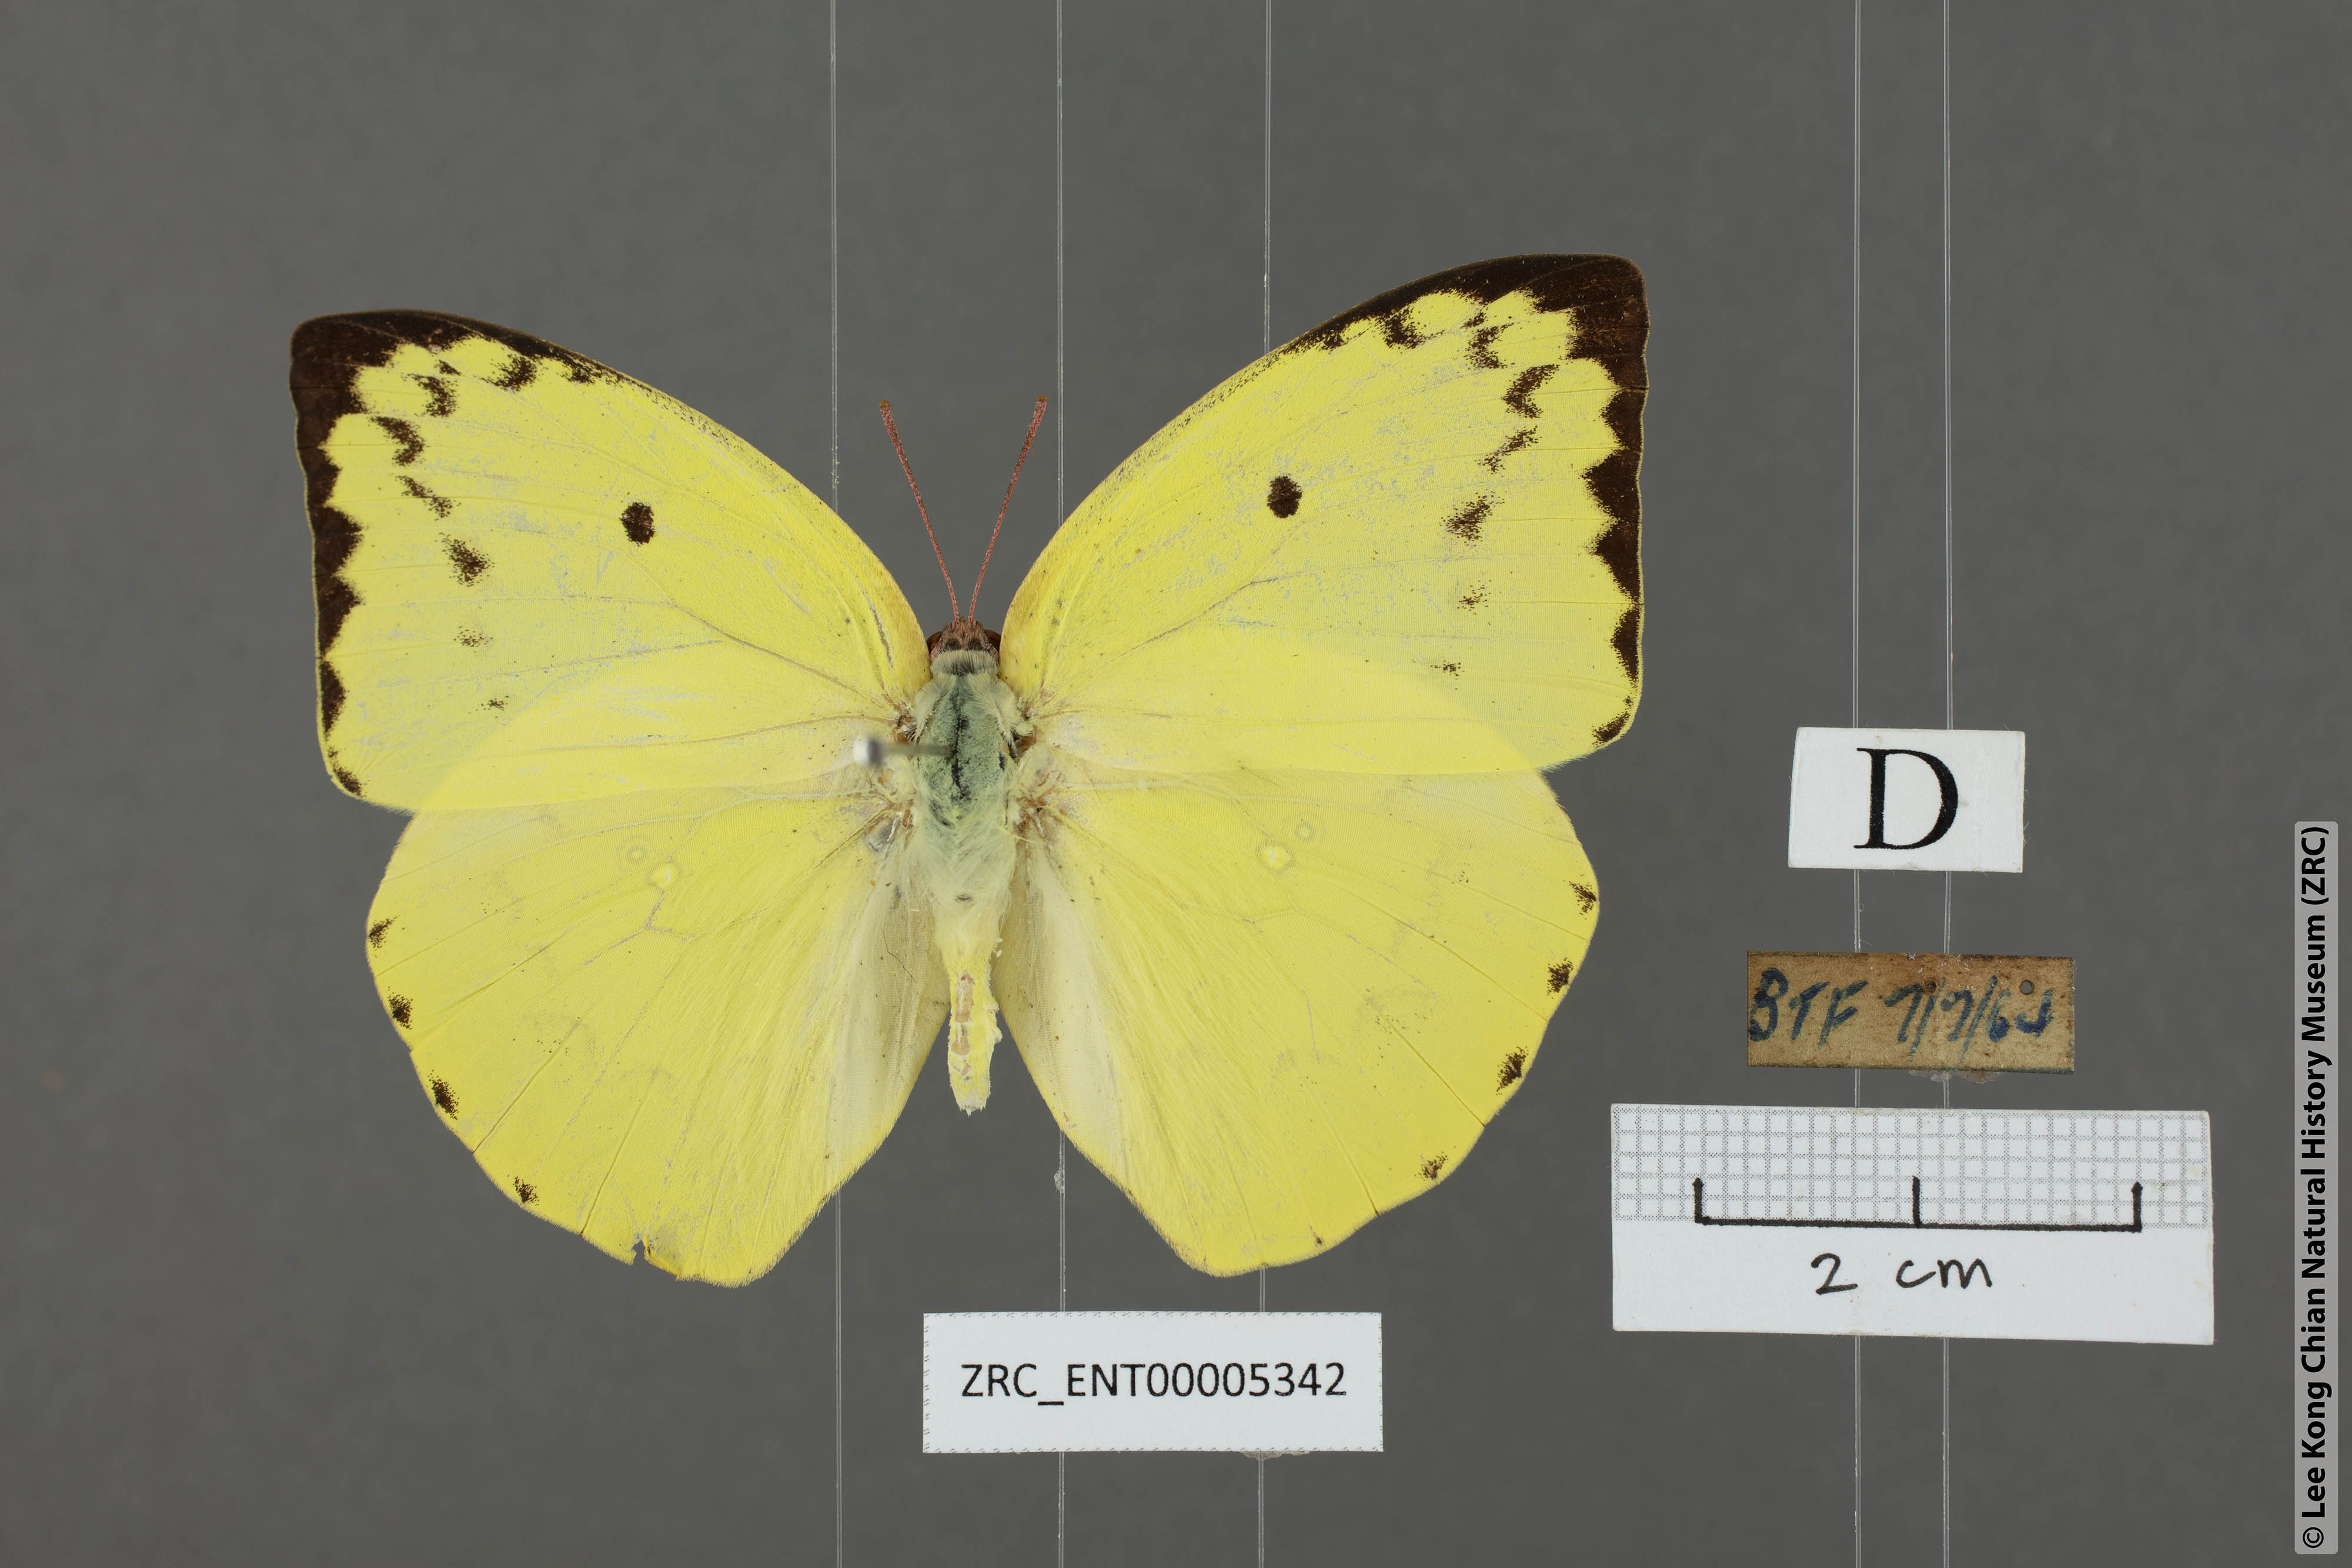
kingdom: Animalia
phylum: Arthropoda
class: Insecta
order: Lepidoptera
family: Pieridae
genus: Catopsilia
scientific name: Catopsilia pomona
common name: Common emigrant
